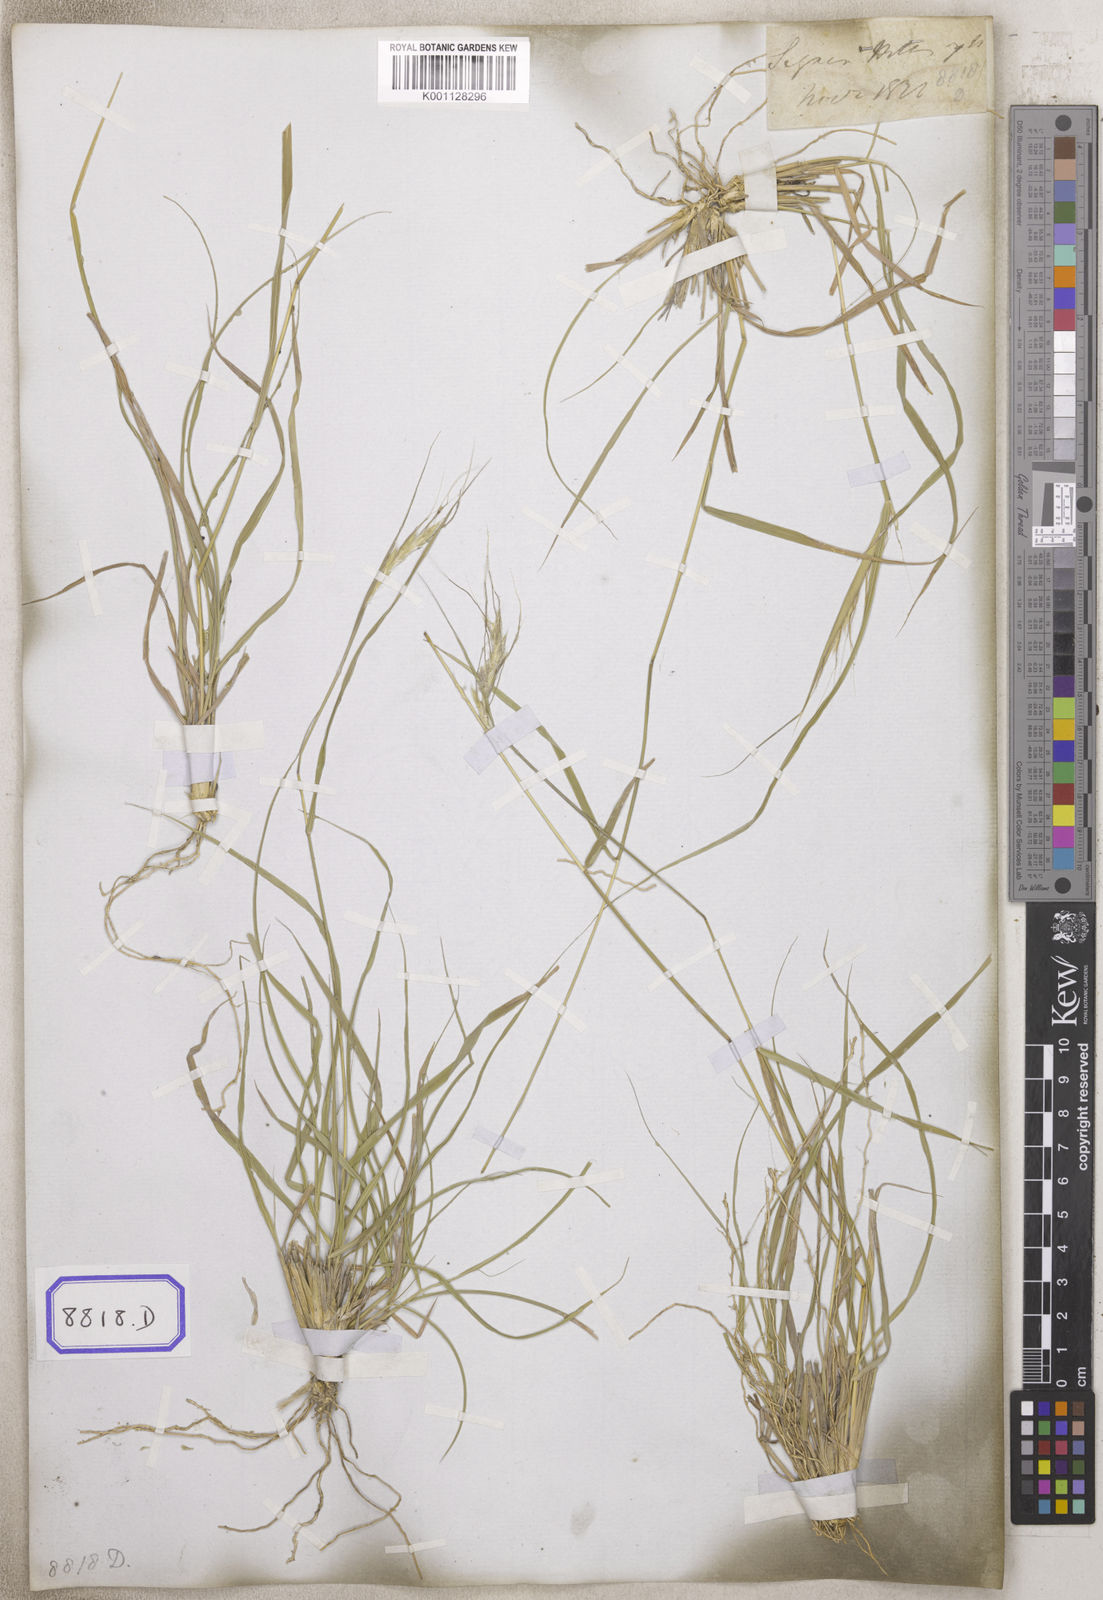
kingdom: Plantae
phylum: Tracheophyta
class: Liliopsida
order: Poales
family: Poaceae
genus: Andropogon
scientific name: Andropogon
